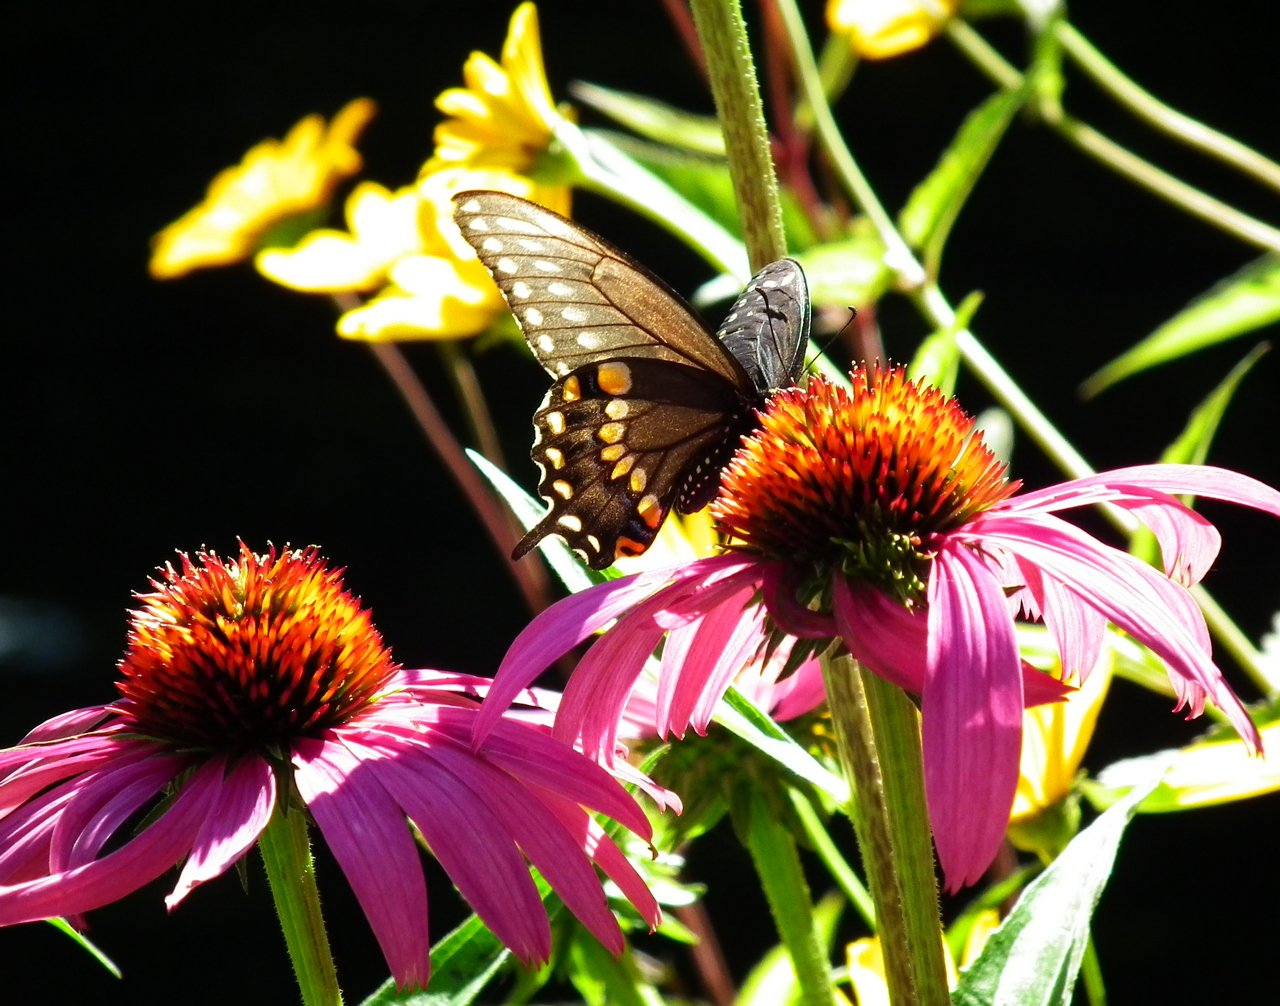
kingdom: Animalia
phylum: Arthropoda
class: Insecta
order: Lepidoptera
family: Papilionidae
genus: Papilio
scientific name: Papilio polyxenes
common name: Black Swallowtail
